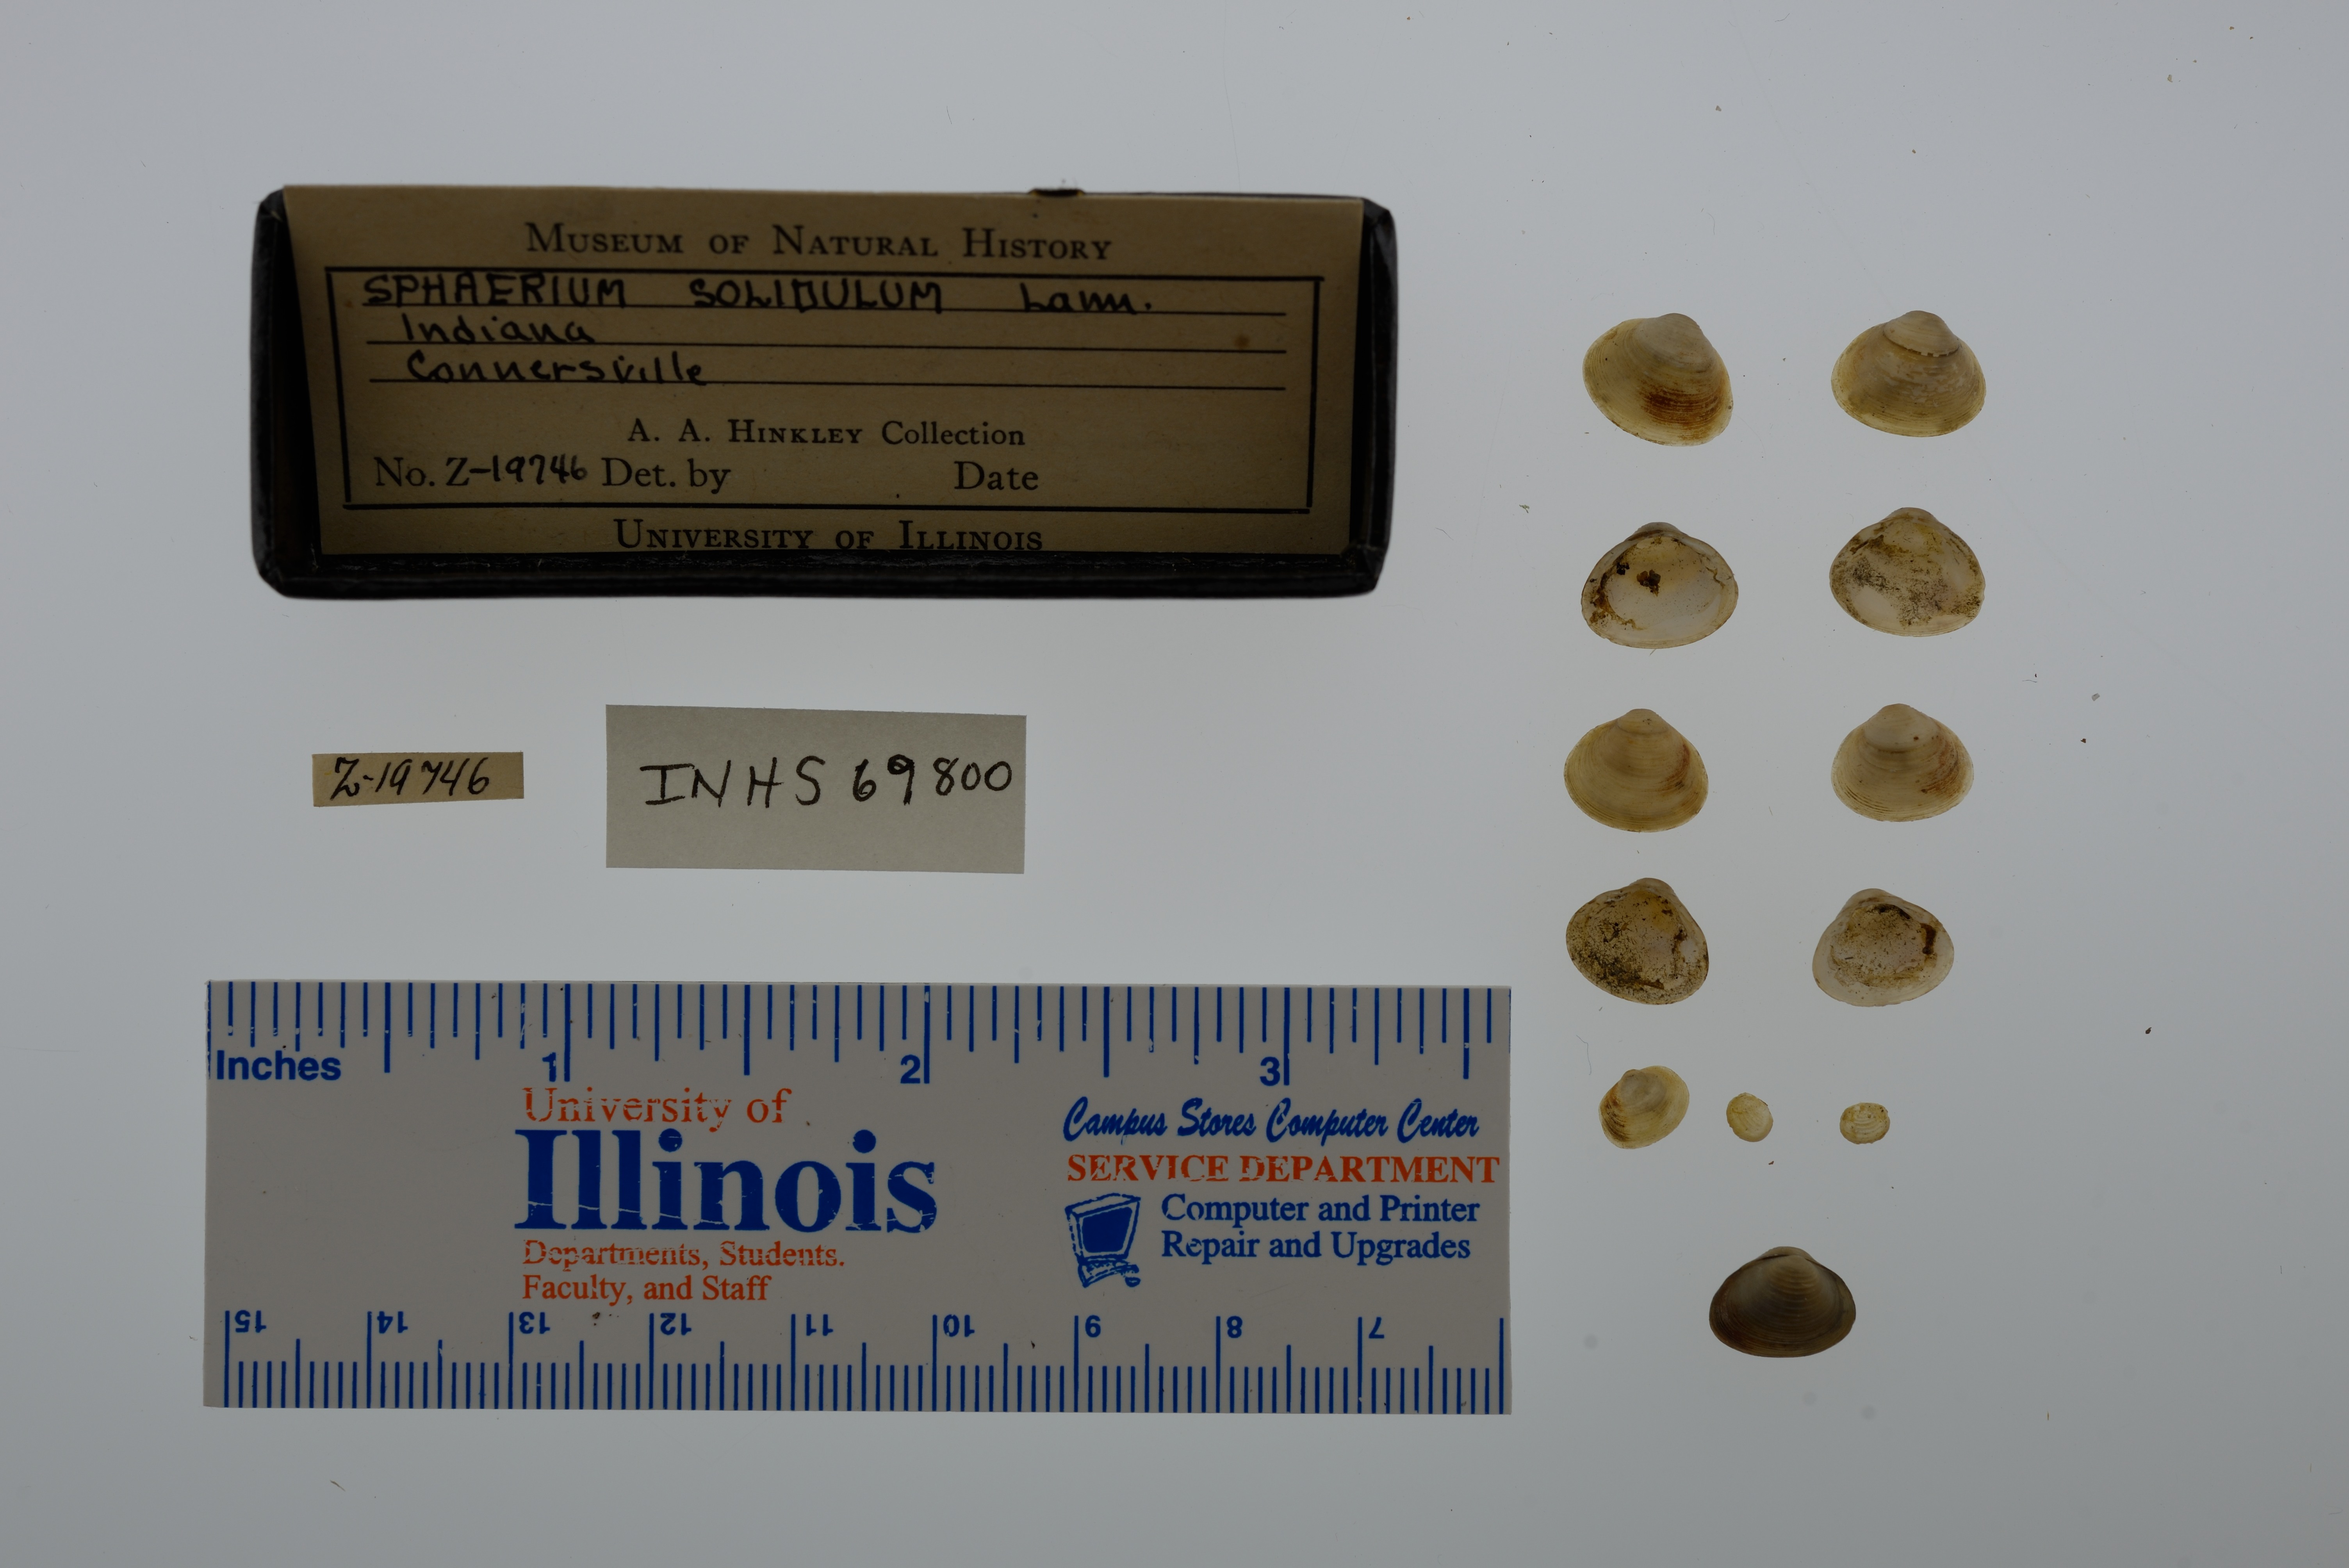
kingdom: Animalia
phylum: Mollusca
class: Bivalvia
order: Sphaeriida
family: Sphaeriidae
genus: Sphaerium
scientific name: Sphaerium striatinum
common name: Striated fingernailclam
